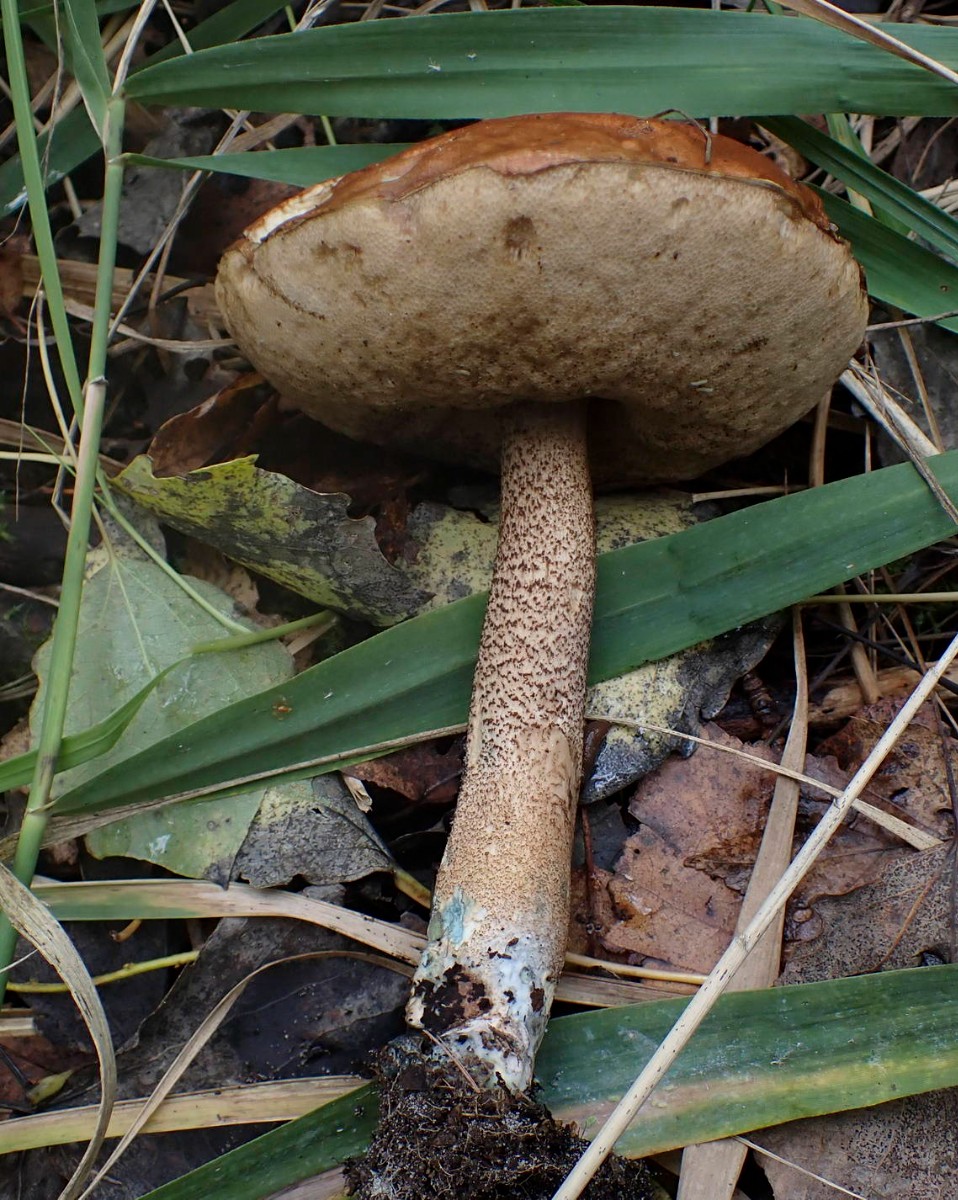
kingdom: Fungi
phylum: Basidiomycota
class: Agaricomycetes
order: Boletales
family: Boletaceae
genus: Leccinum
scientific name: Leccinum
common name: skælrørhat
